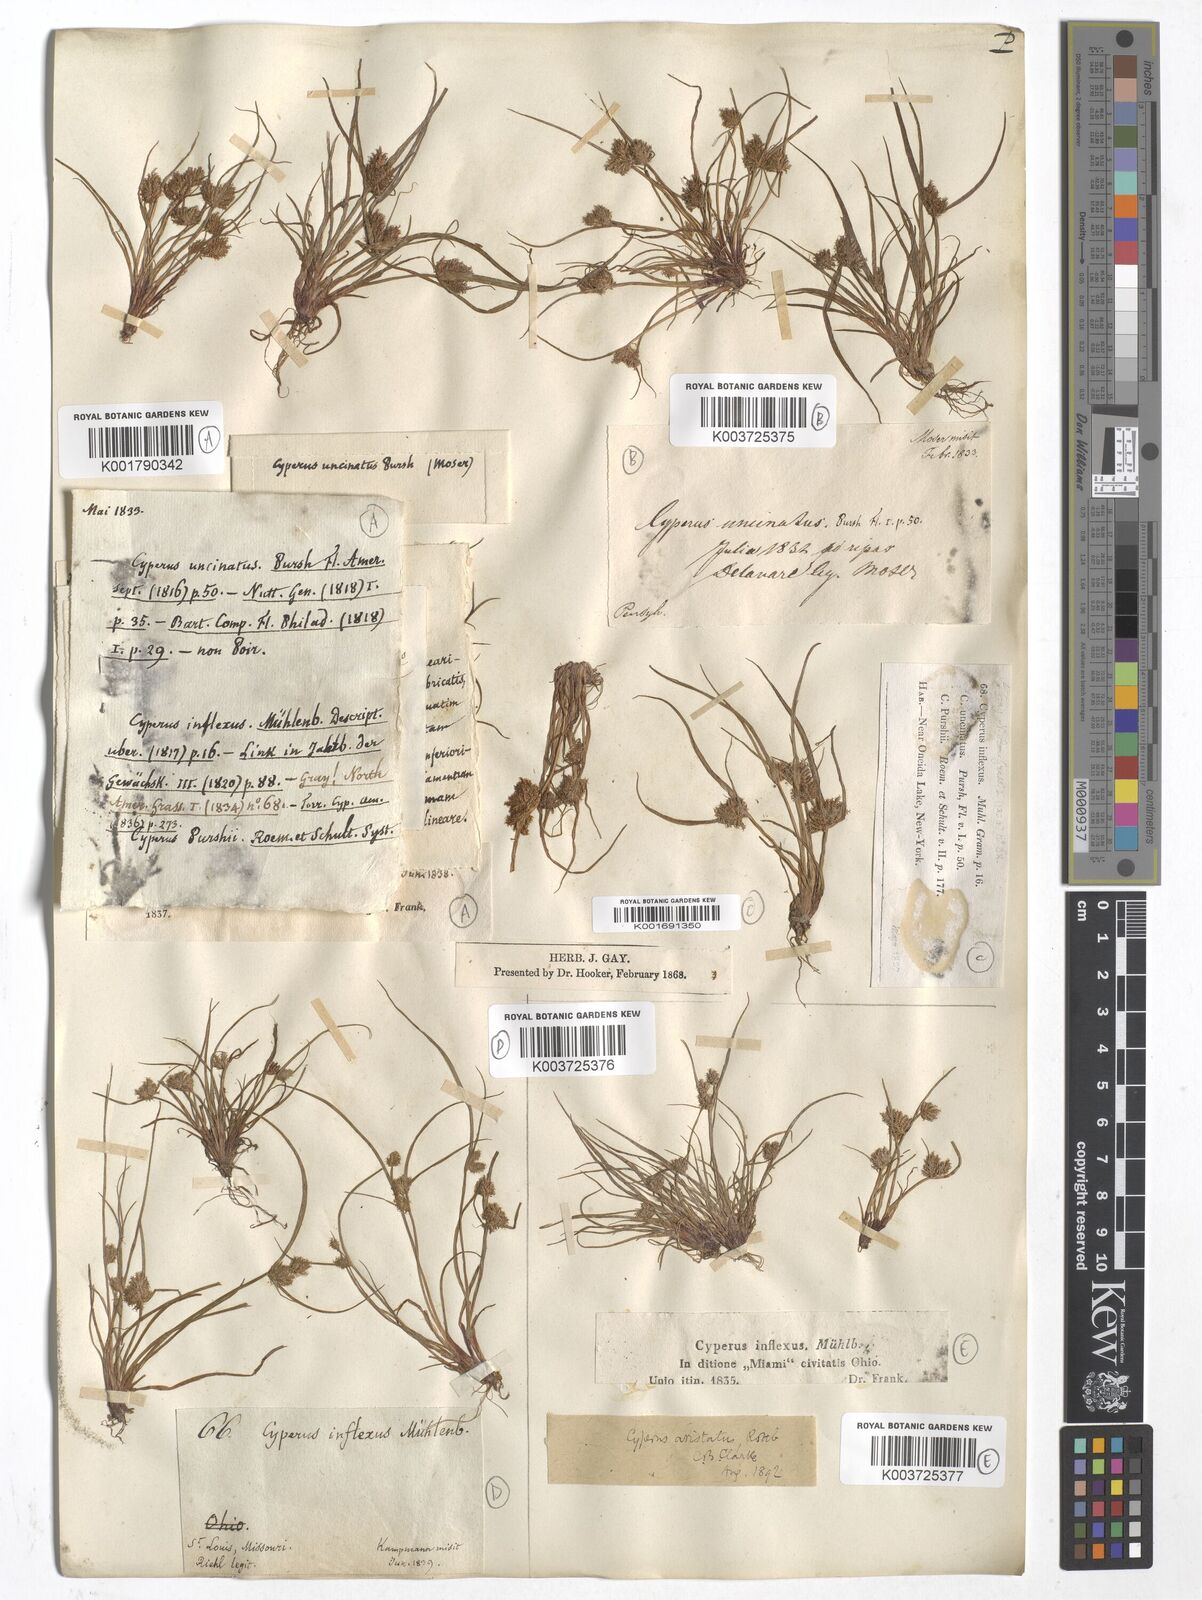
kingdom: Plantae
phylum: Tracheophyta
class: Liliopsida
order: Poales
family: Cyperaceae
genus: Cyperus
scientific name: Cyperus squarrosus
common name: Awned cyperus
